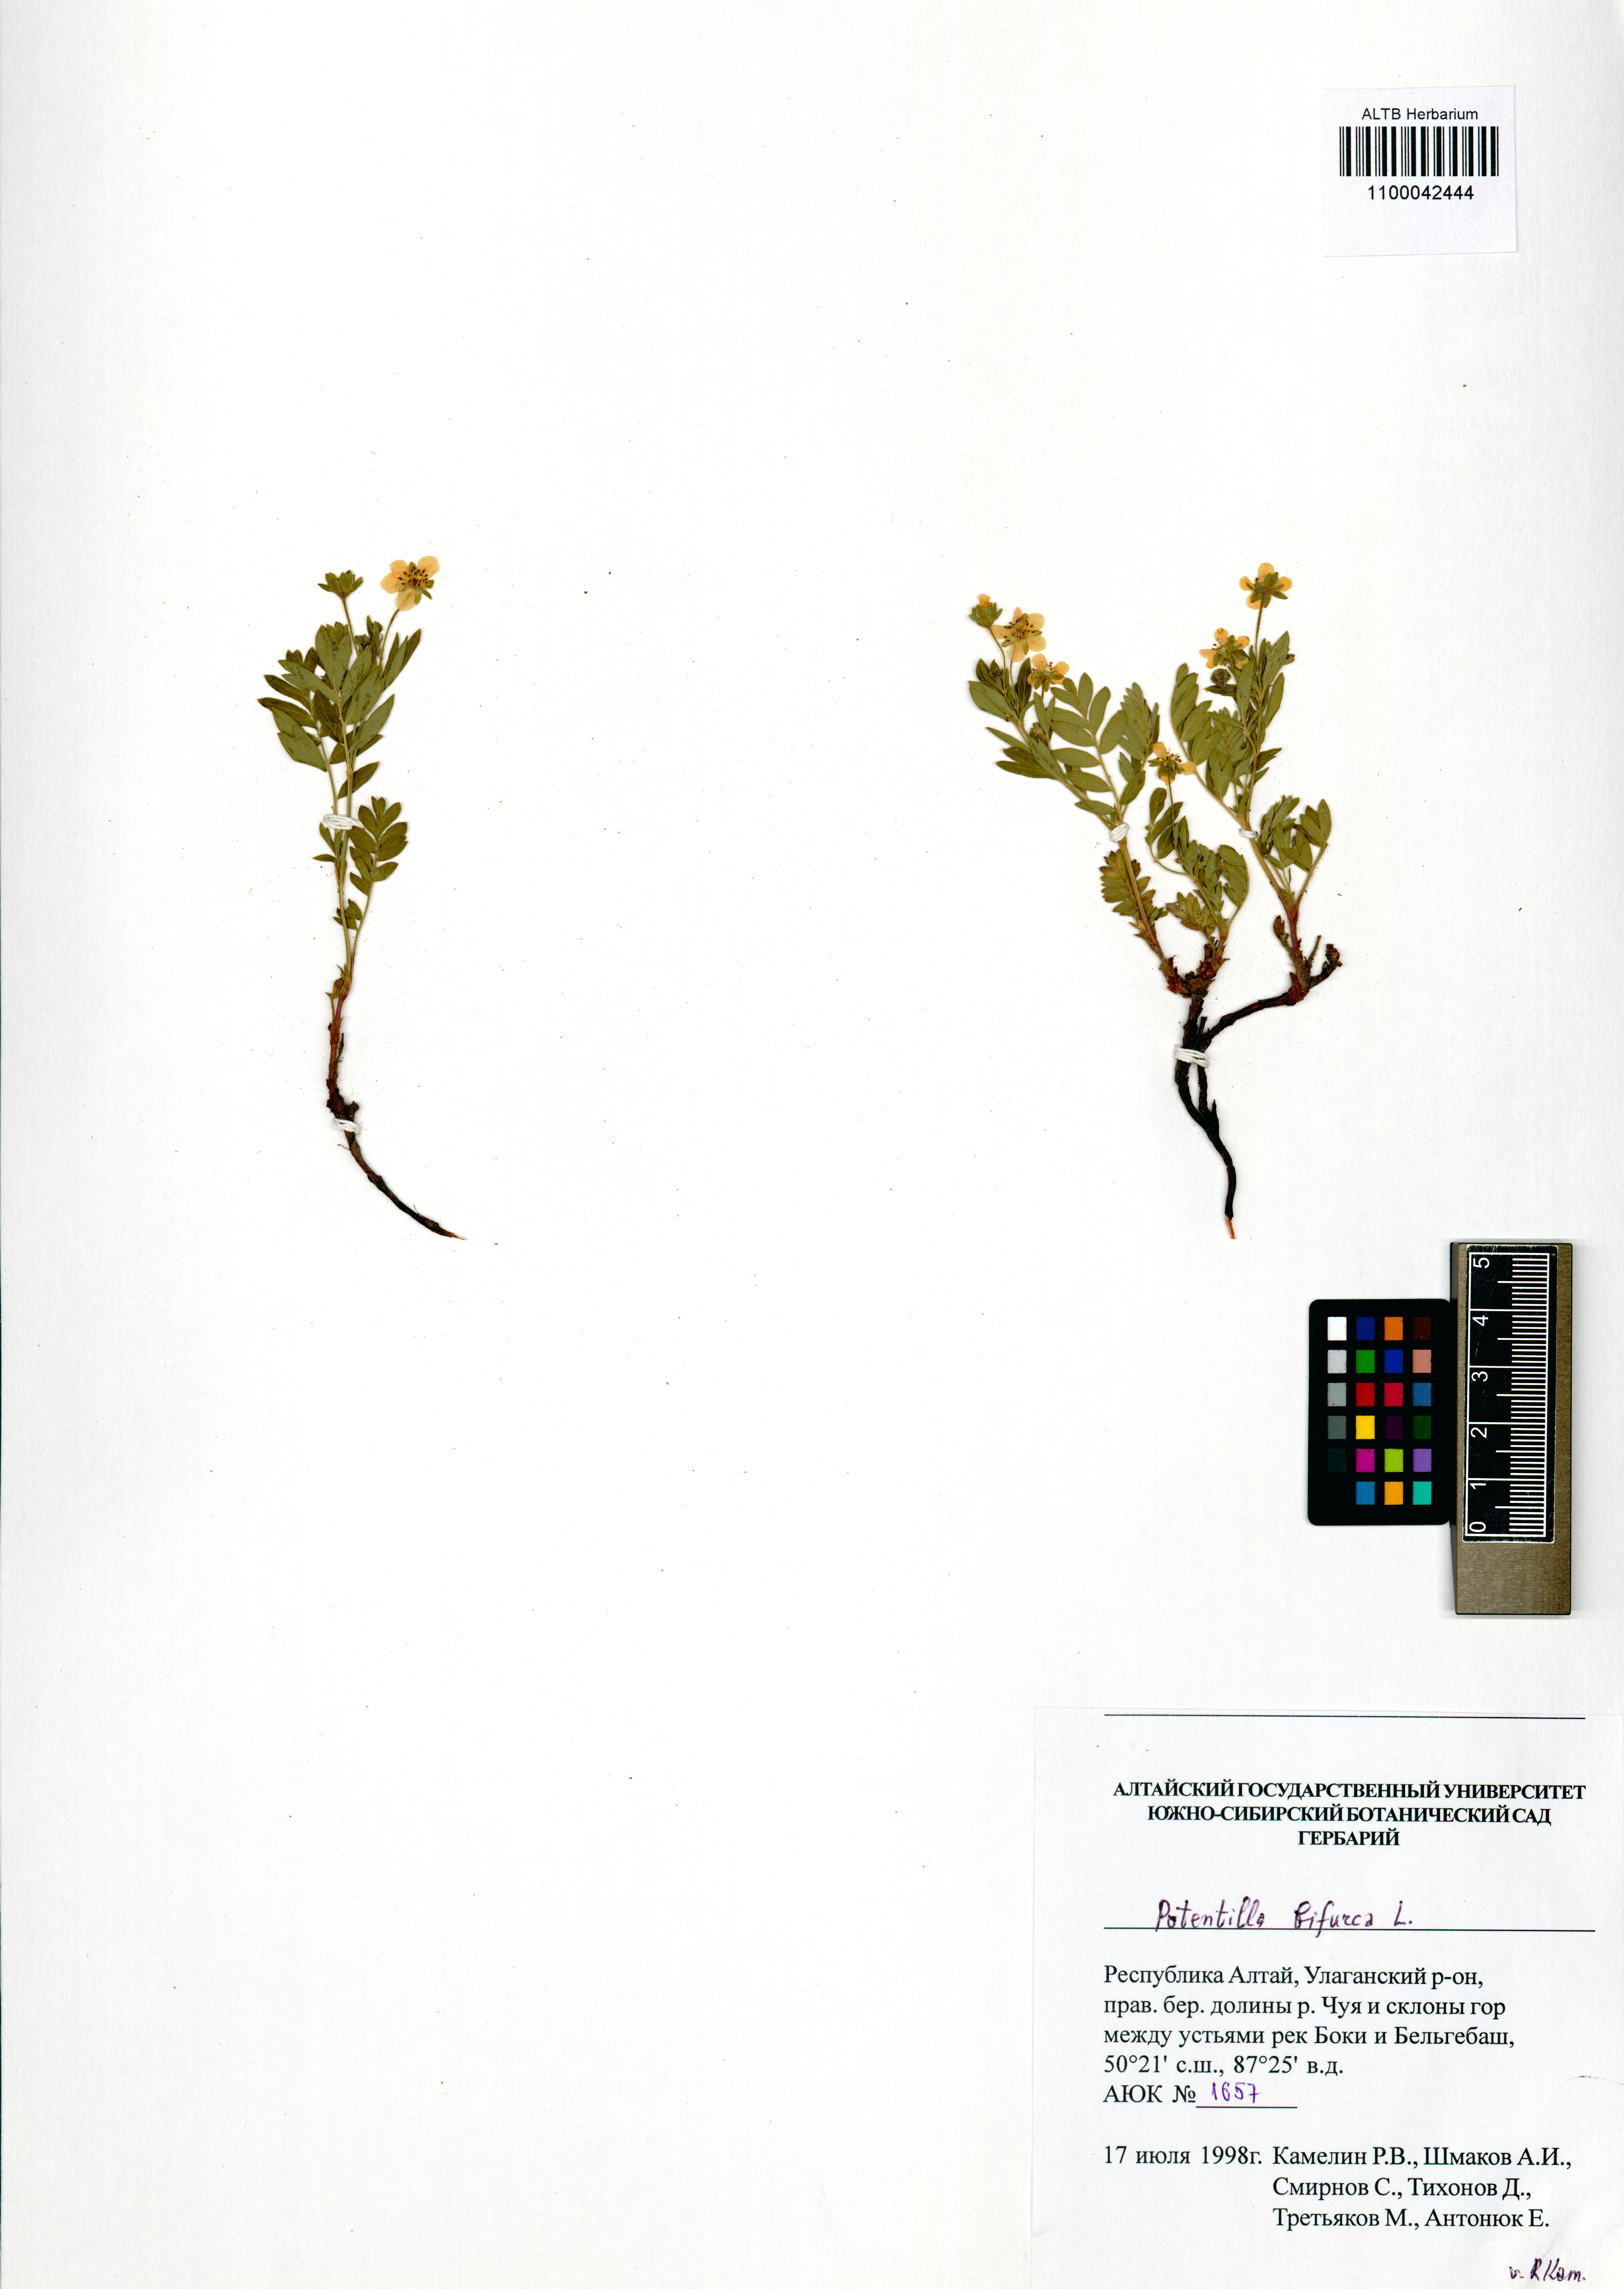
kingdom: Plantae
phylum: Tracheophyta
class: Magnoliopsida
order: Rosales
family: Rosaceae
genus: Sibbaldianthe
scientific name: Sibbaldianthe bifurca
